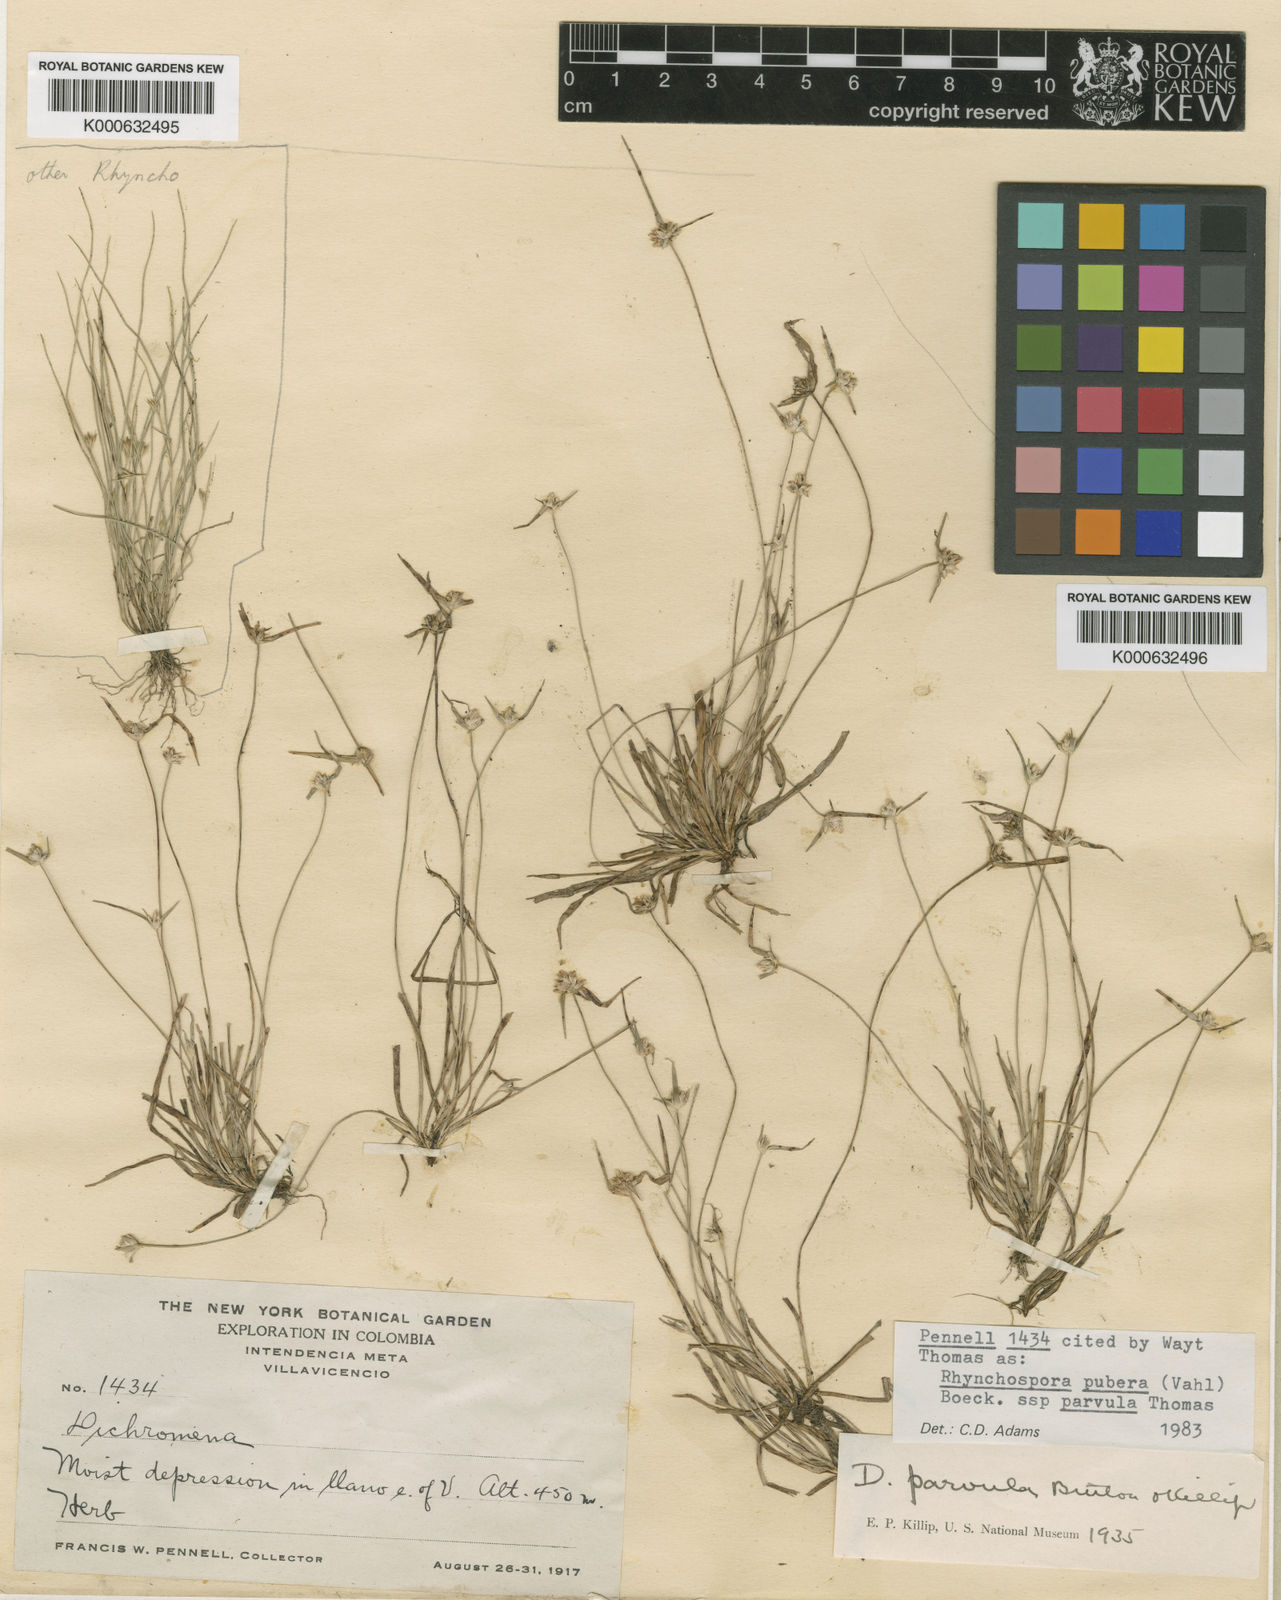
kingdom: Plantae
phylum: Tracheophyta
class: Liliopsida
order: Poales
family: Cyperaceae
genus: Rhynchospora
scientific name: Rhynchospora pubera
